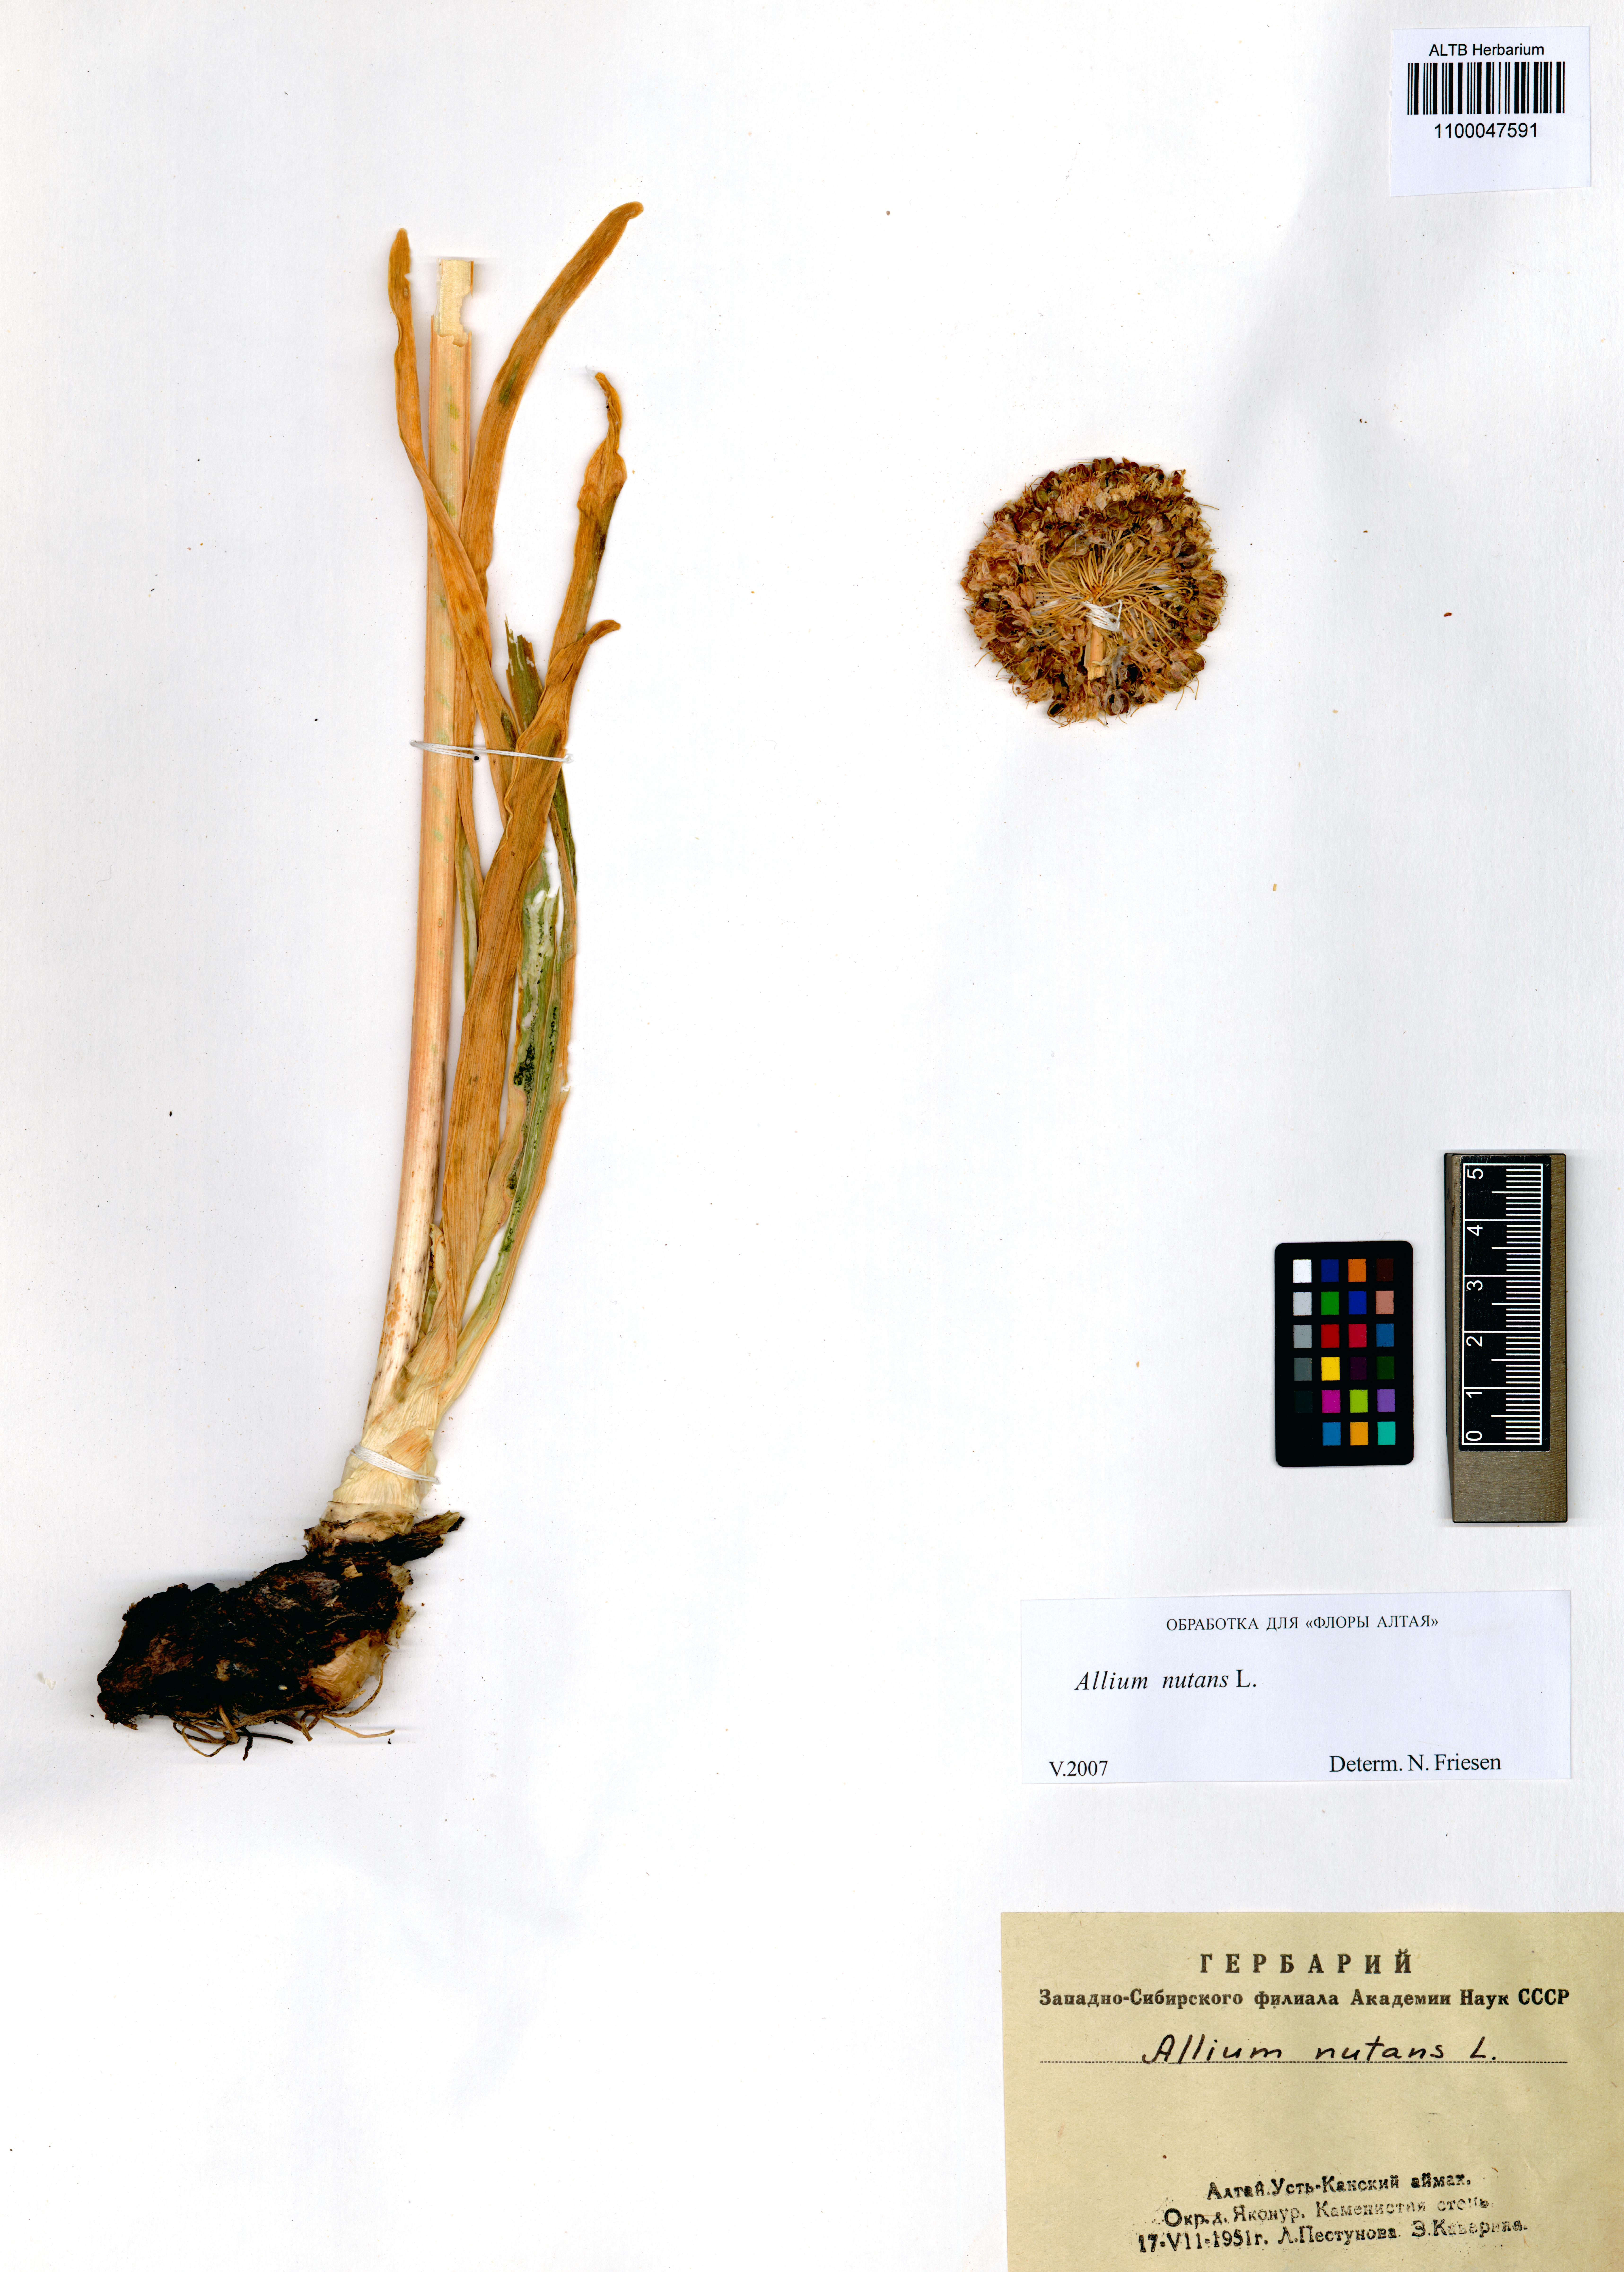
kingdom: Plantae
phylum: Tracheophyta
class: Liliopsida
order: Asparagales
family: Amaryllidaceae
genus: Allium
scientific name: Allium nutans
